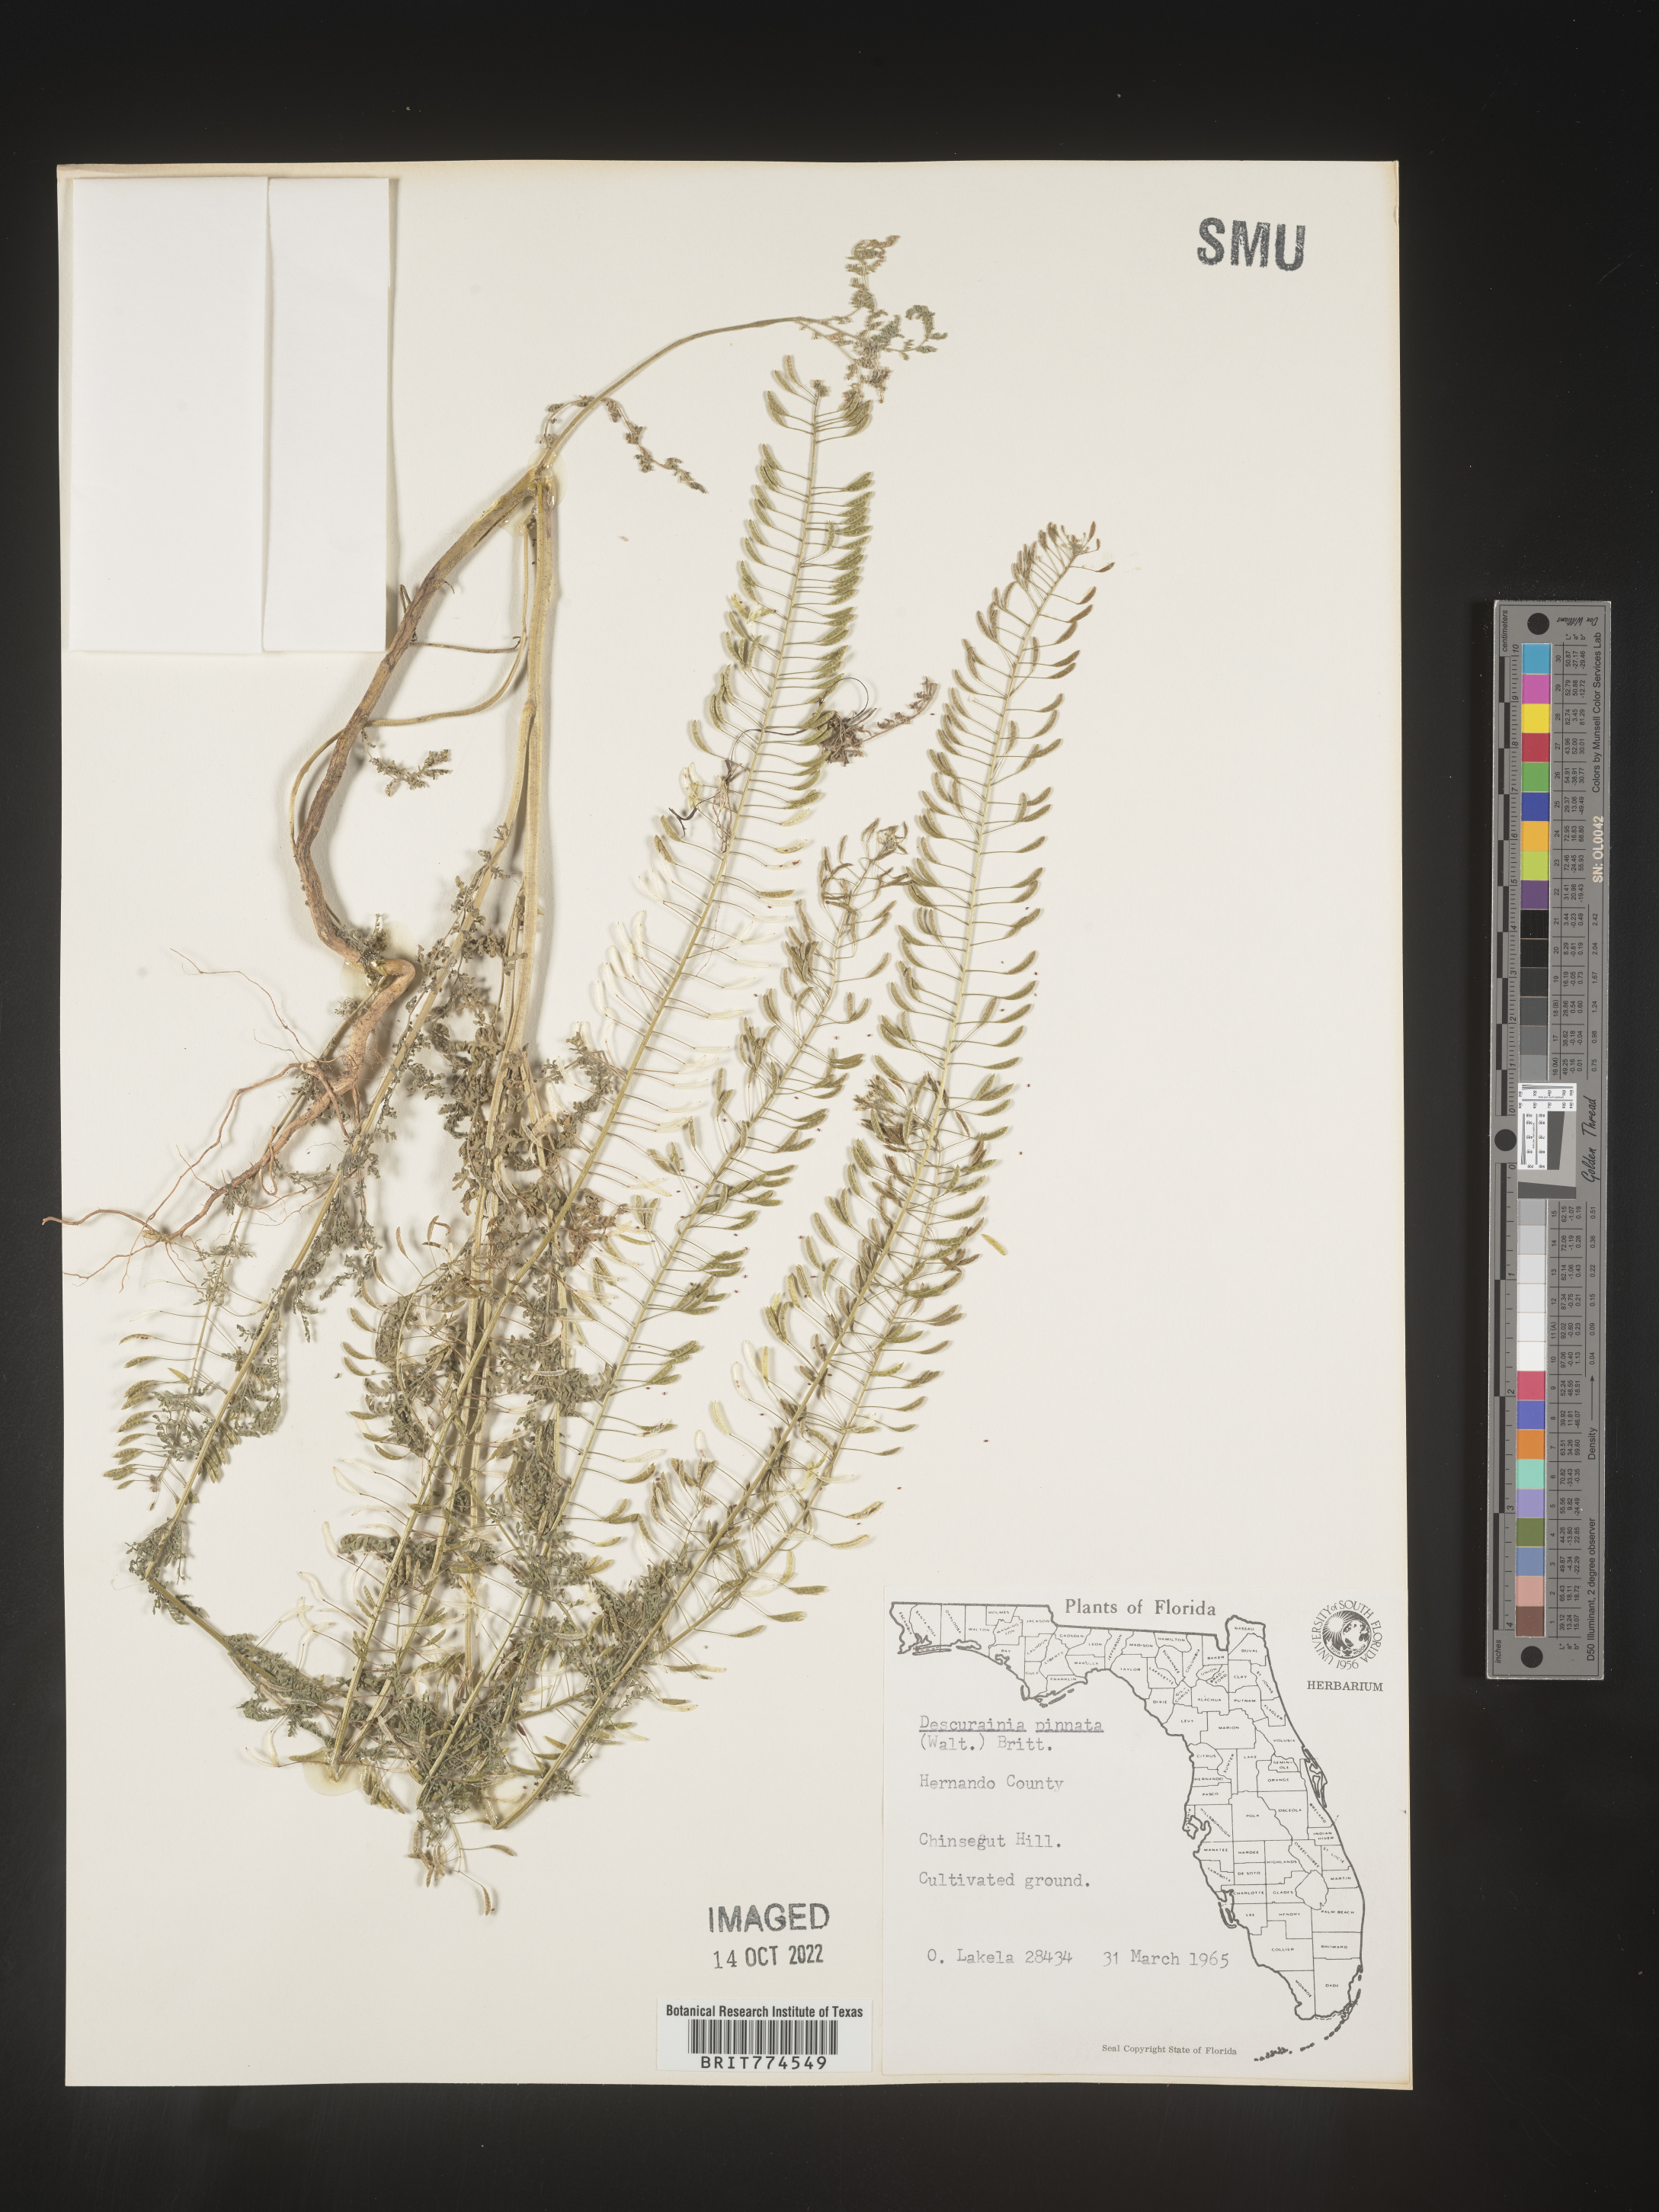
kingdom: Plantae
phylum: Tracheophyta
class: Magnoliopsida
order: Brassicales
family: Brassicaceae
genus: Descurainia
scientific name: Descurainia pinnata
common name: Western tansy mustard
